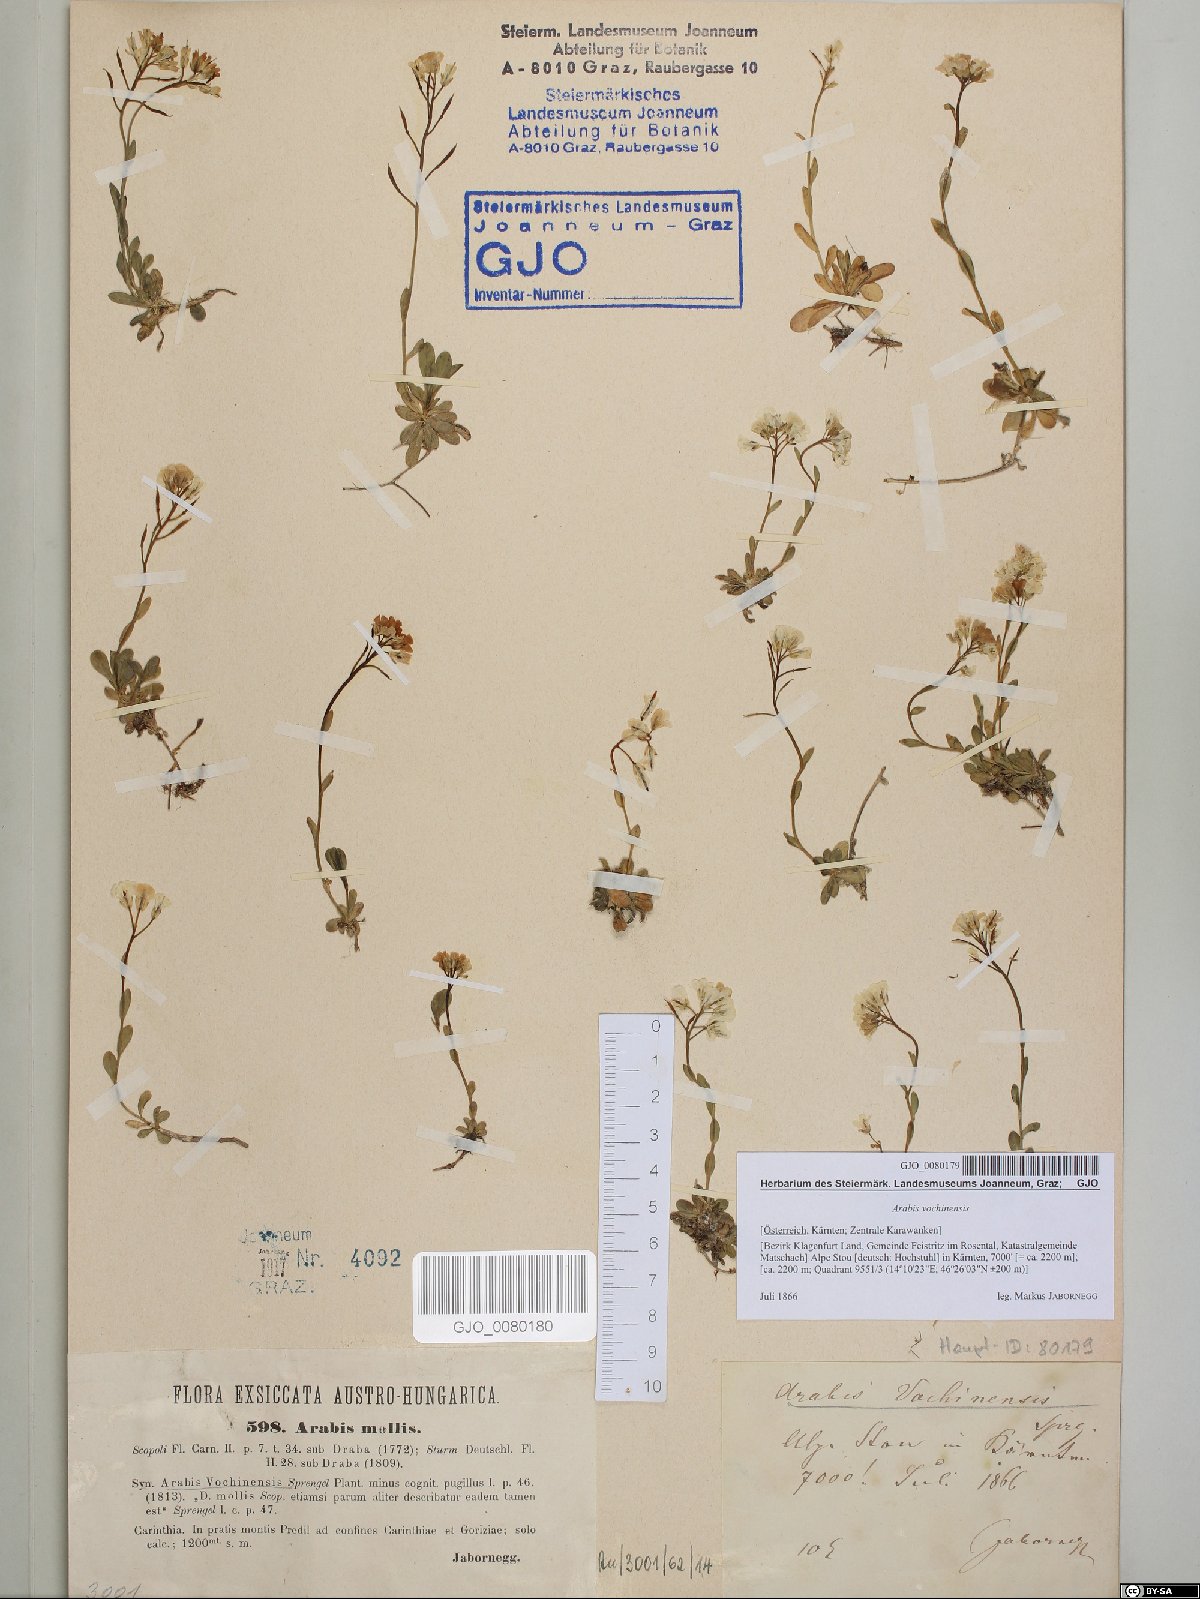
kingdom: Plantae
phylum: Tracheophyta
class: Magnoliopsida
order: Brassicales
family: Brassicaceae
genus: Arabis
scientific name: Arabis christiani
